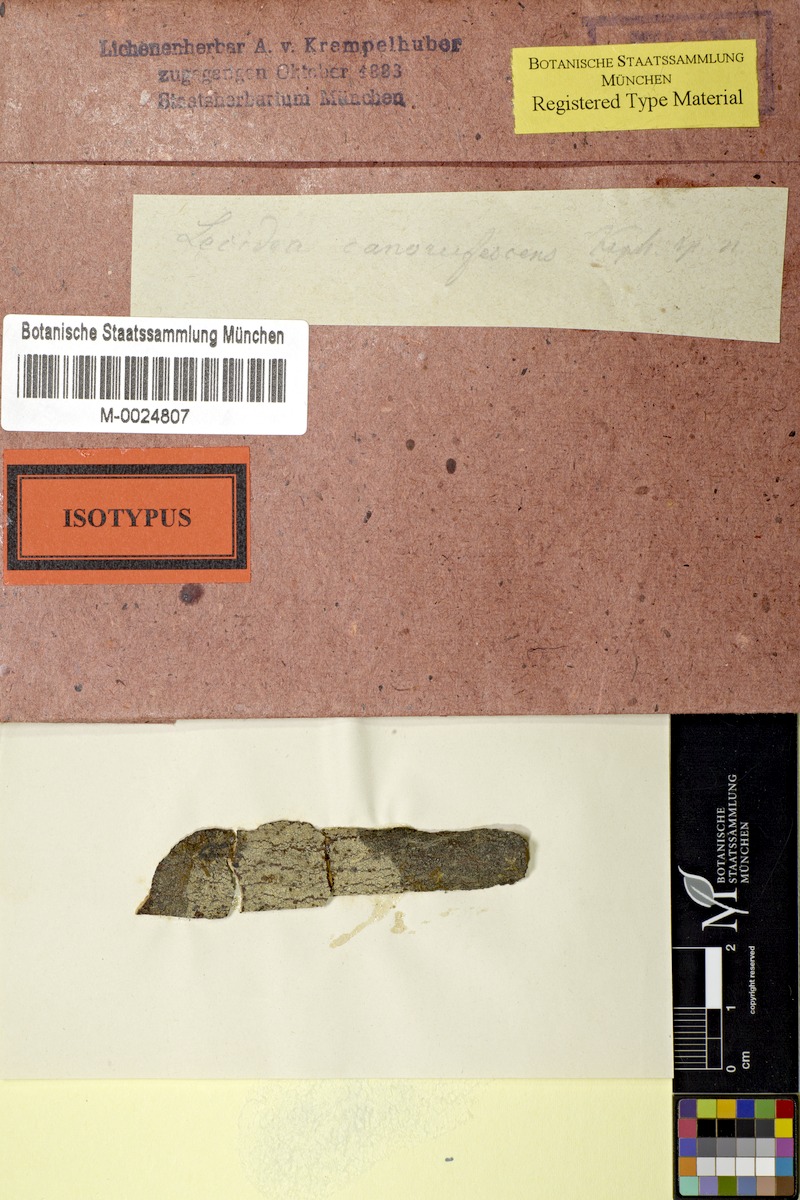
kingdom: Fungi
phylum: Ascomycota
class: Lecanoromycetes
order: Lecanorales
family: Malmideaceae
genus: Australidea
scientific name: Australidea canorufescens
